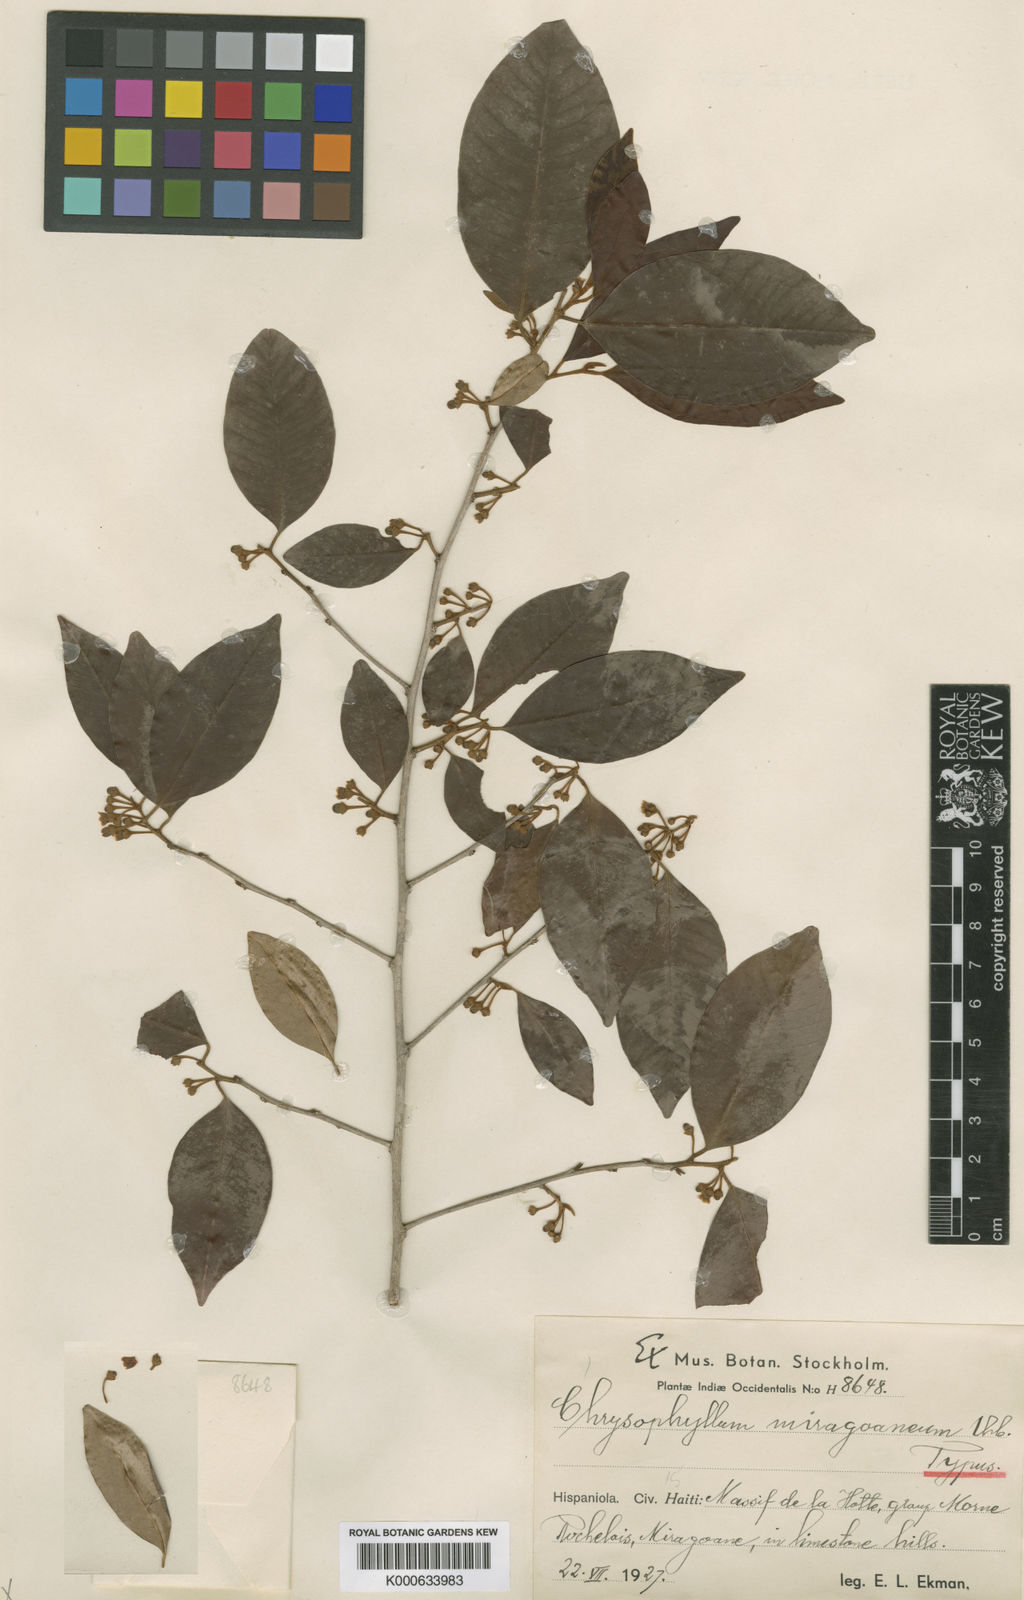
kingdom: Plantae
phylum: Tracheophyta
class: Magnoliopsida
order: Ericales
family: Sapotaceae
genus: Chrysophyllum
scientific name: Chrysophyllum argenteum
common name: Smooth star apple
